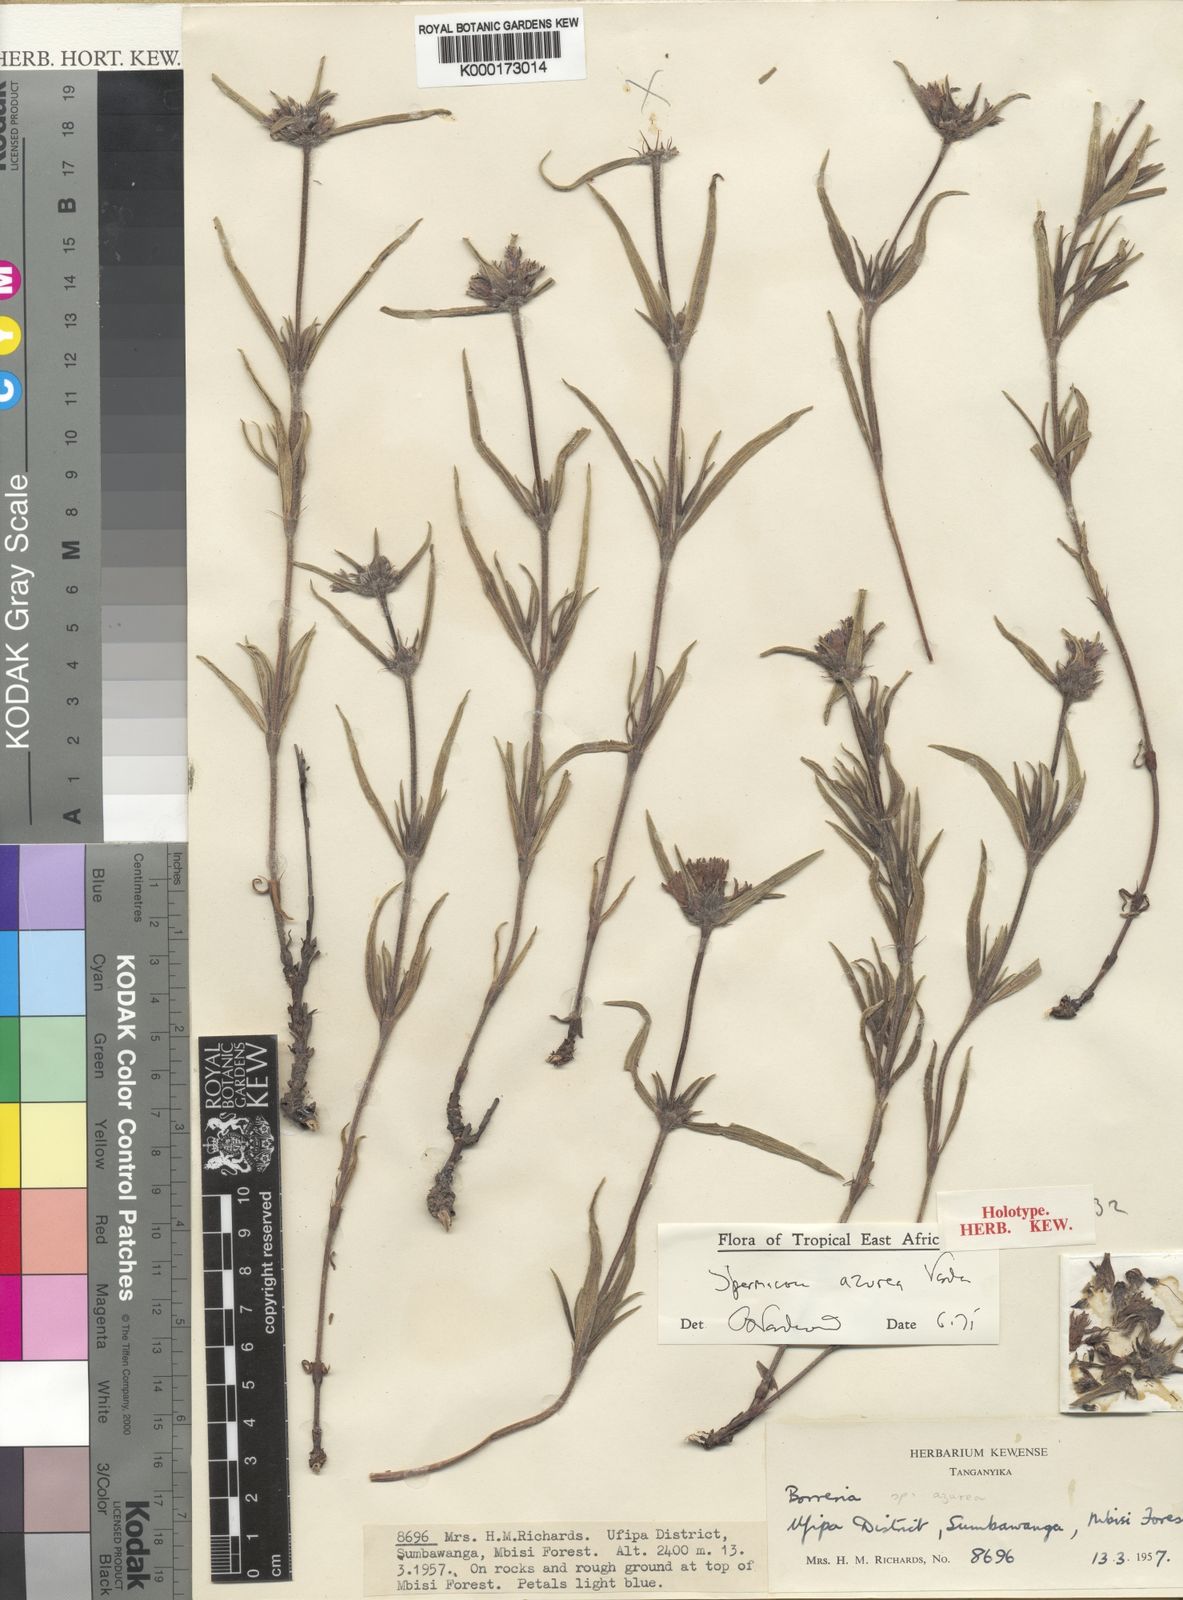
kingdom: Plantae
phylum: Tracheophyta
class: Magnoliopsida
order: Gentianales
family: Rubiaceae
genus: Spermacoce
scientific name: Spermacoce azurea
